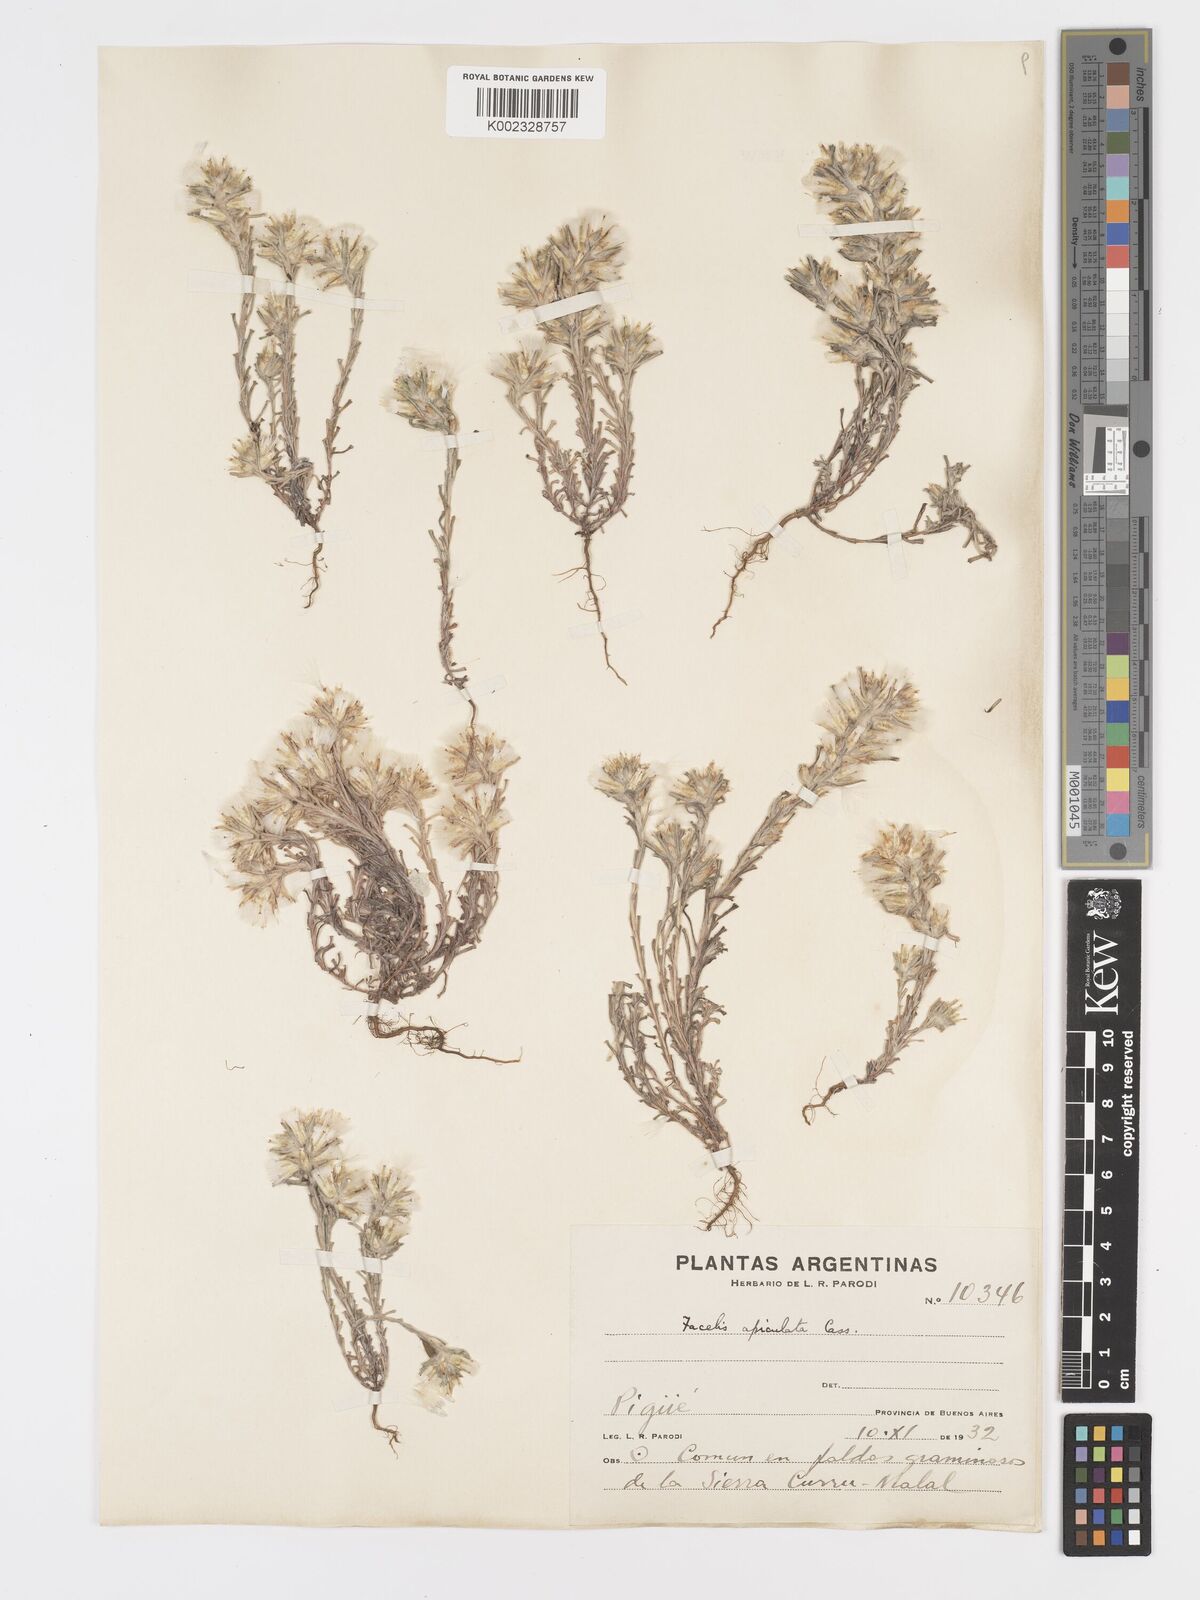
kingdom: Plantae
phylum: Tracheophyta
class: Magnoliopsida
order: Asterales
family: Asteraceae
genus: Facelis
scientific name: Facelis retusa
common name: Annual trampweed
